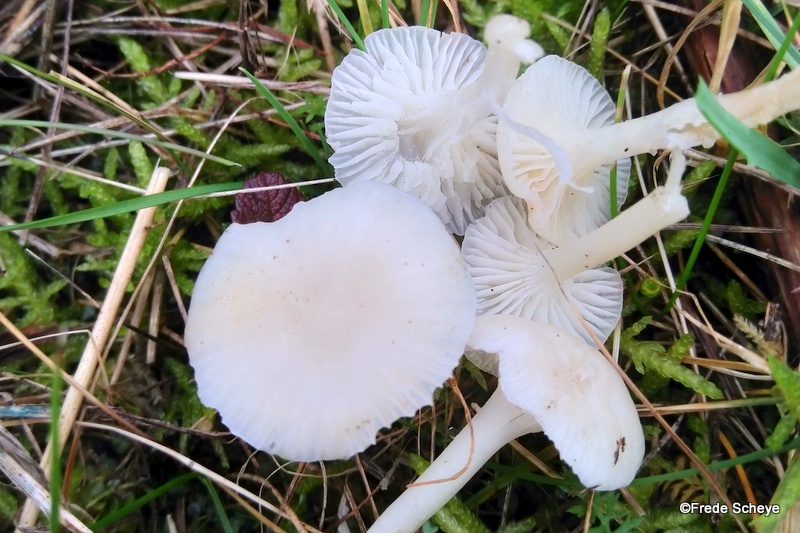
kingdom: Fungi
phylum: Basidiomycota
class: Agaricomycetes
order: Agaricales
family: Hygrophoraceae
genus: Cuphophyllus
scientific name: Cuphophyllus virgineus
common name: snehvid vokshat
